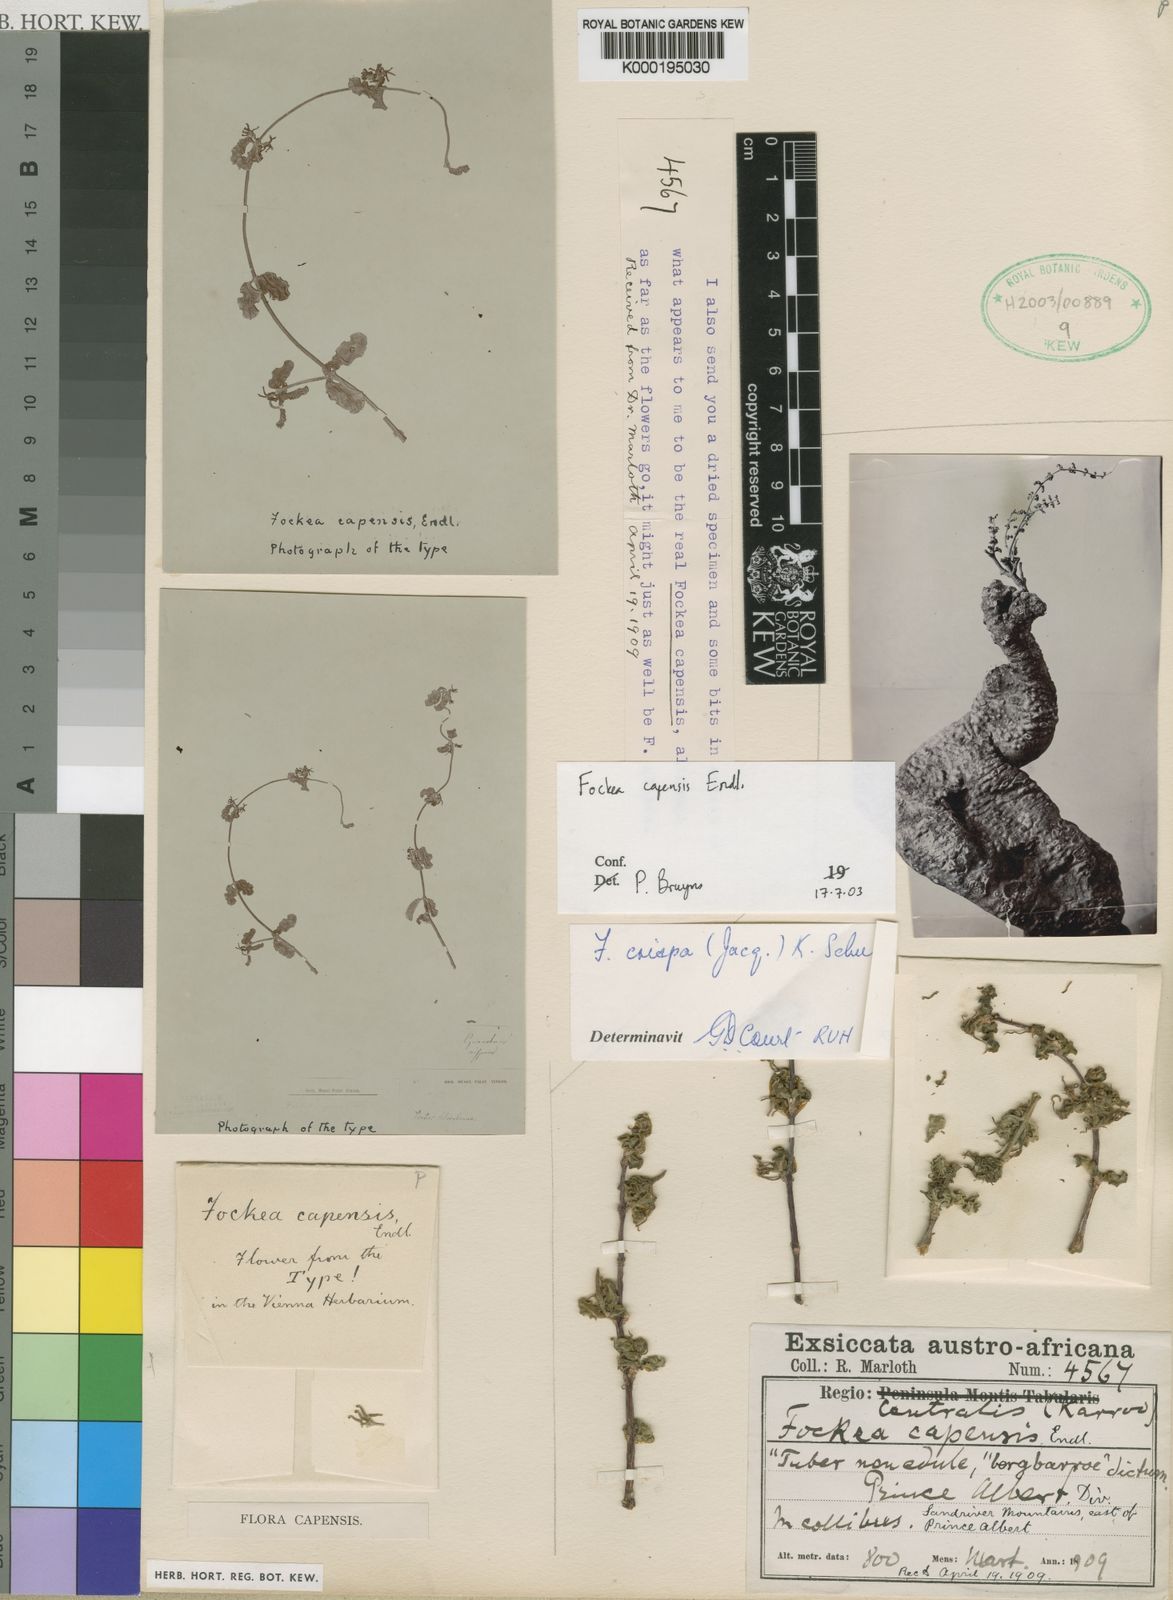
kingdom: Plantae
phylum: Tracheophyta
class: Magnoliopsida
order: Gentianales
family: Apocynaceae
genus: Fockea
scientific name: Fockea capensis
